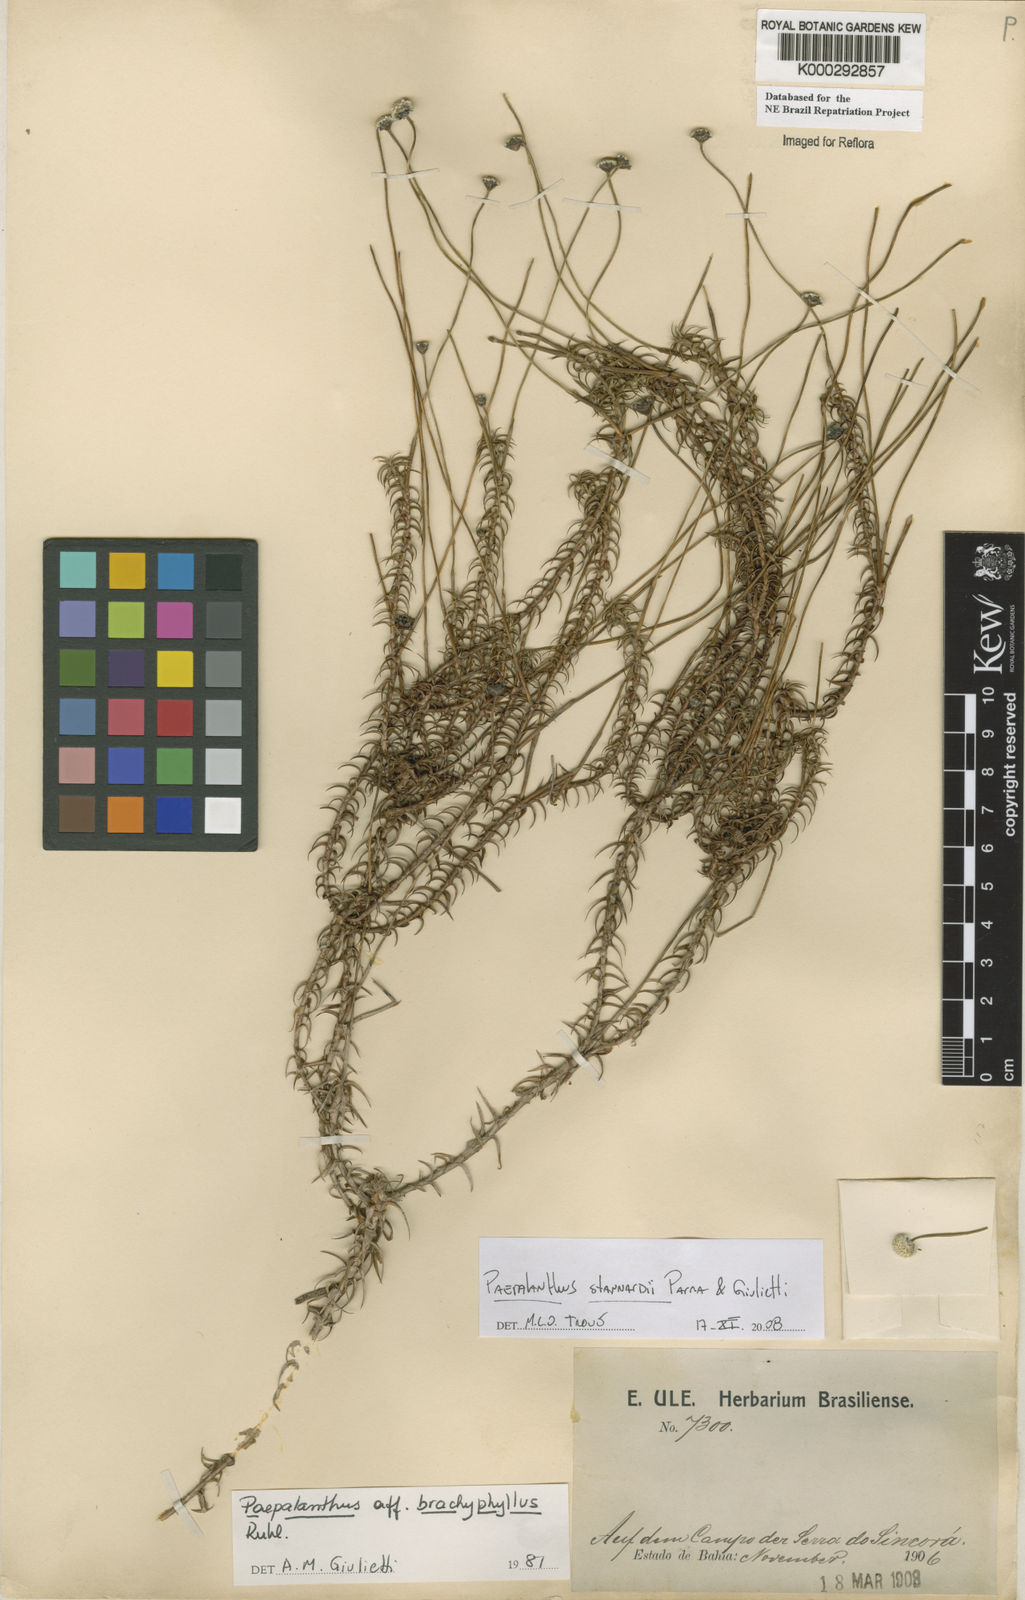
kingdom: Plantae
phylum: Tracheophyta
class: Liliopsida
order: Poales
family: Eriocaulaceae
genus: Paepalanthus
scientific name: Paepalanthus brachyphyllus
